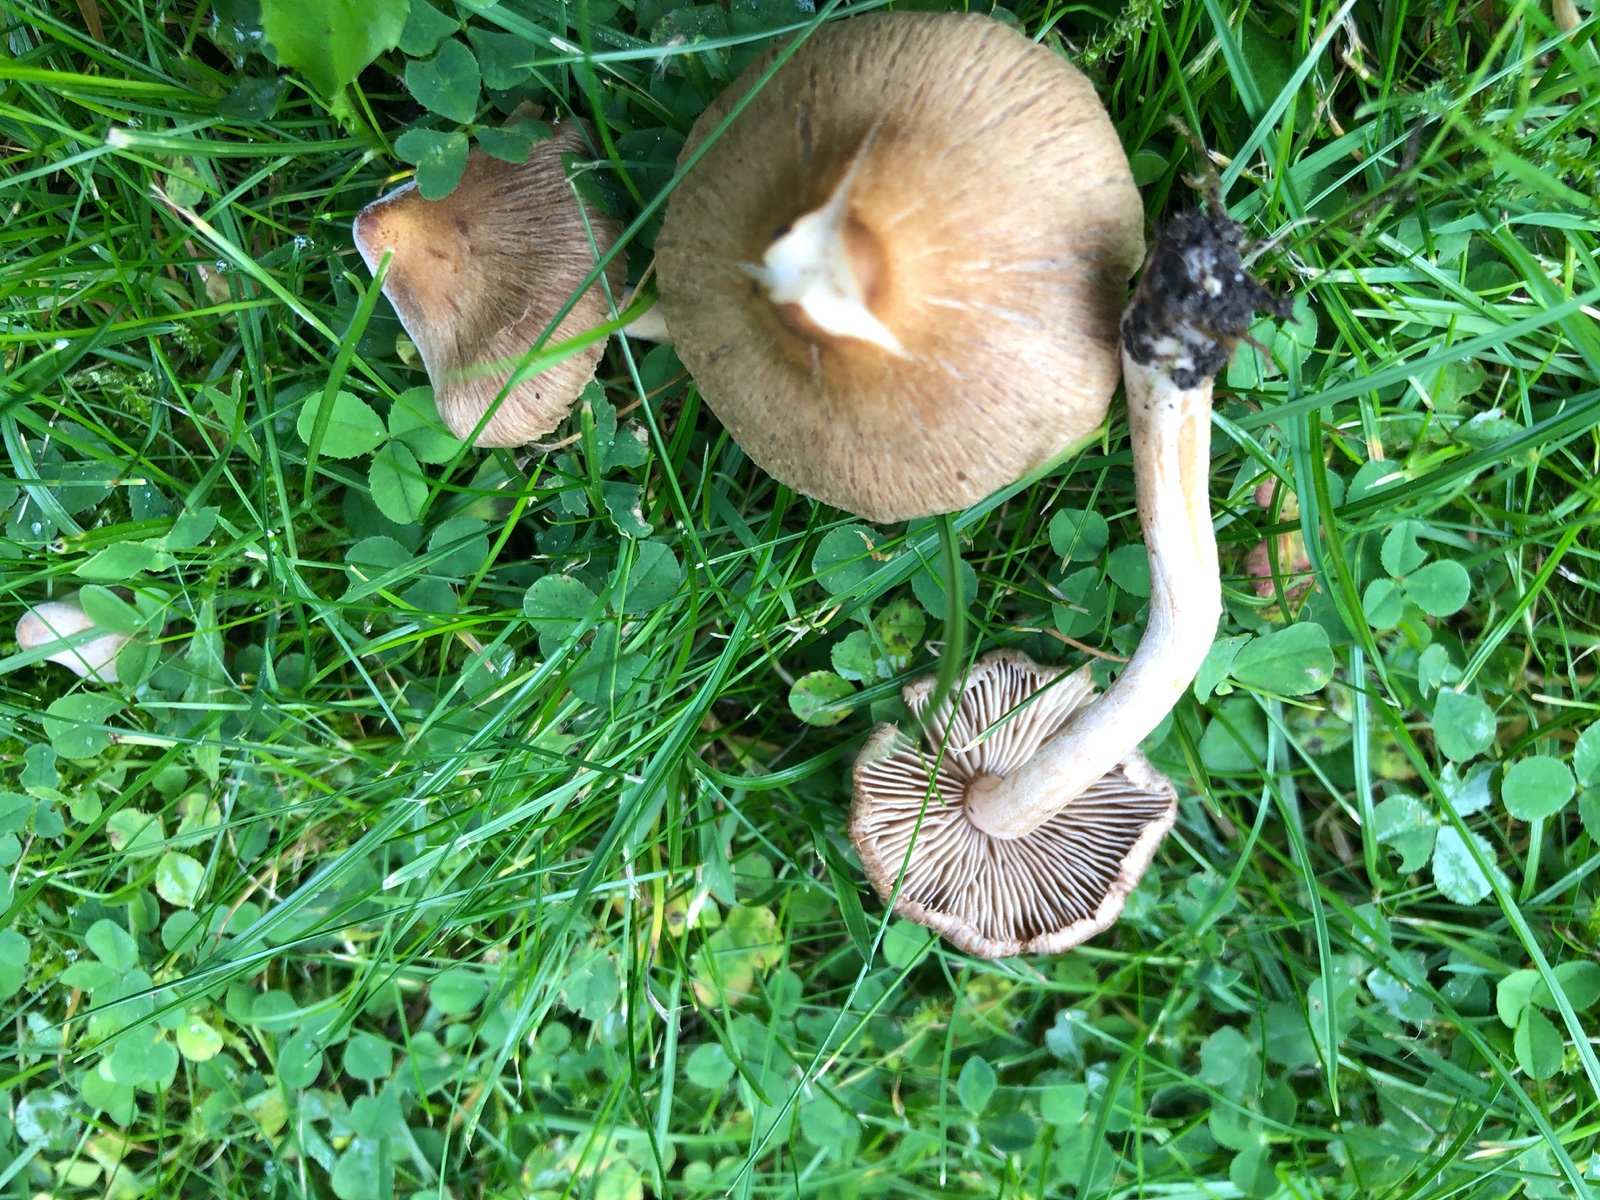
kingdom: Fungi
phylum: Basidiomycota
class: Agaricomycetes
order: Agaricales
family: Inocybaceae
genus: Inocybe
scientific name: Inocybe
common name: trævlhat
